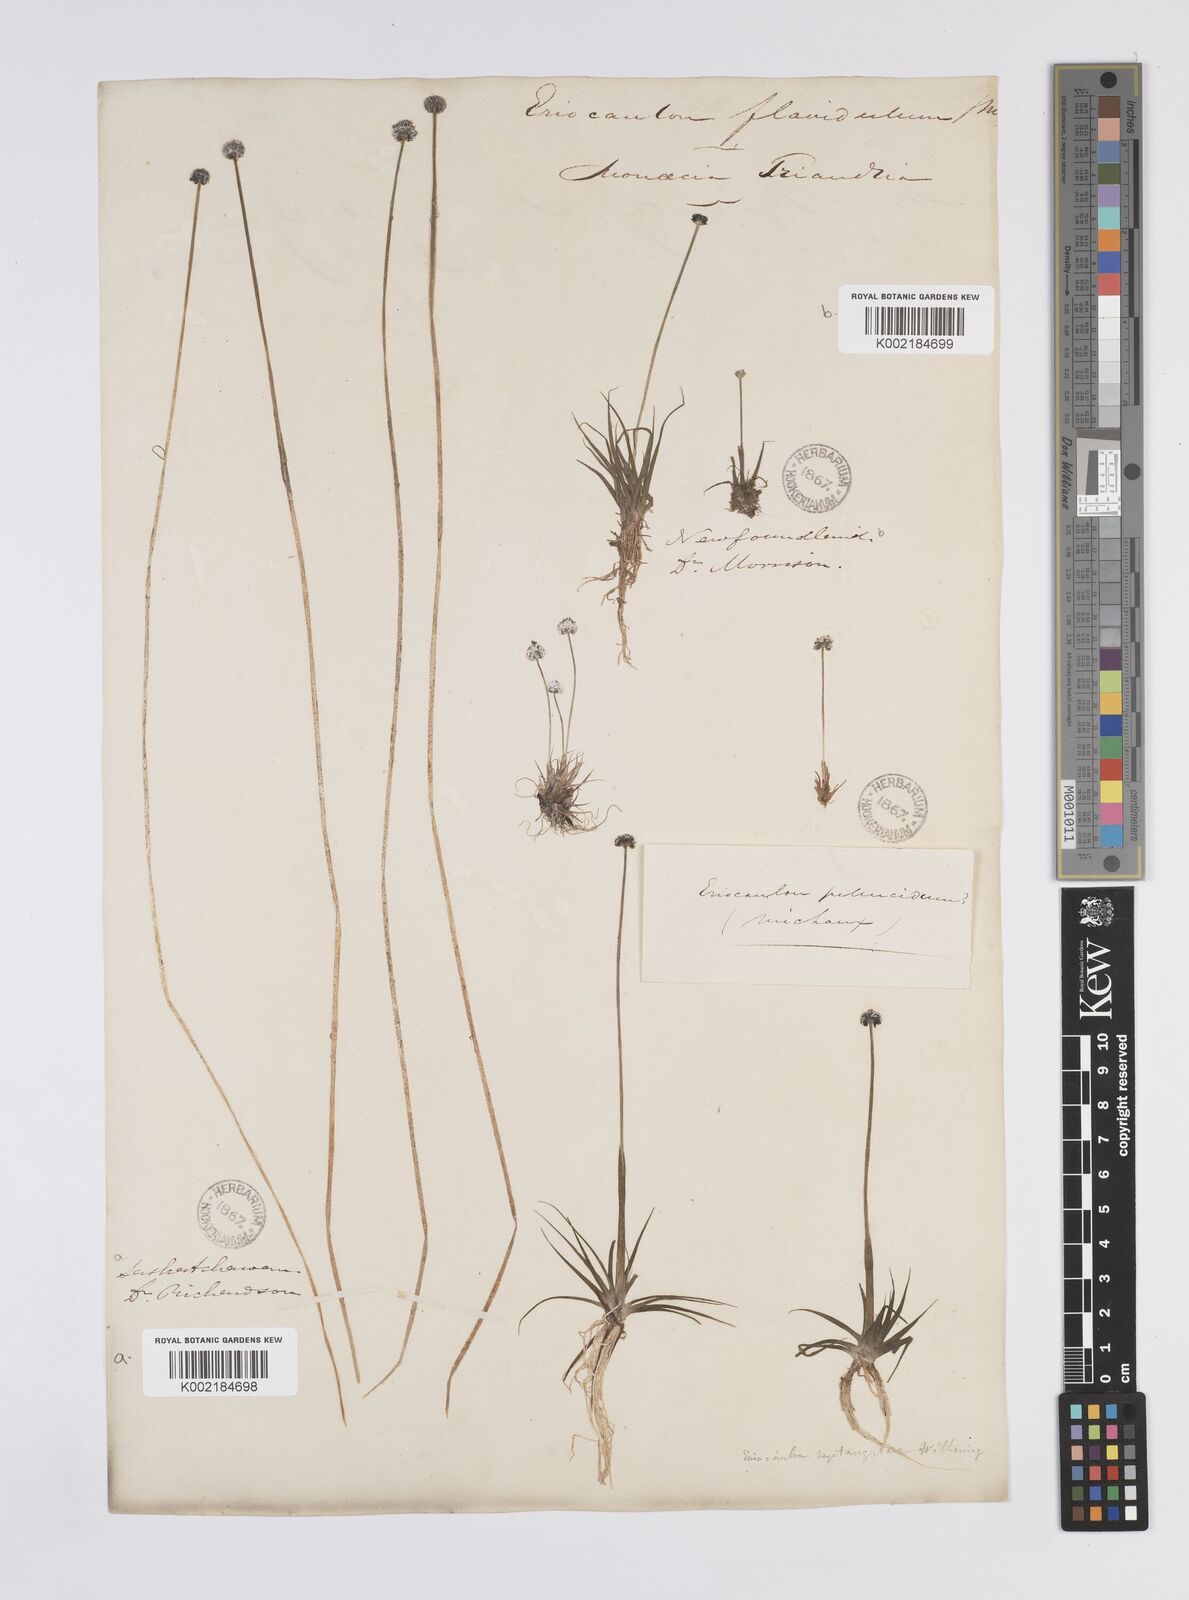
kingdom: Plantae
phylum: Tracheophyta
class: Liliopsida
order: Poales
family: Eriocaulaceae
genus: Eriocaulon
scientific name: Eriocaulon aquaticum
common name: Pipewort
